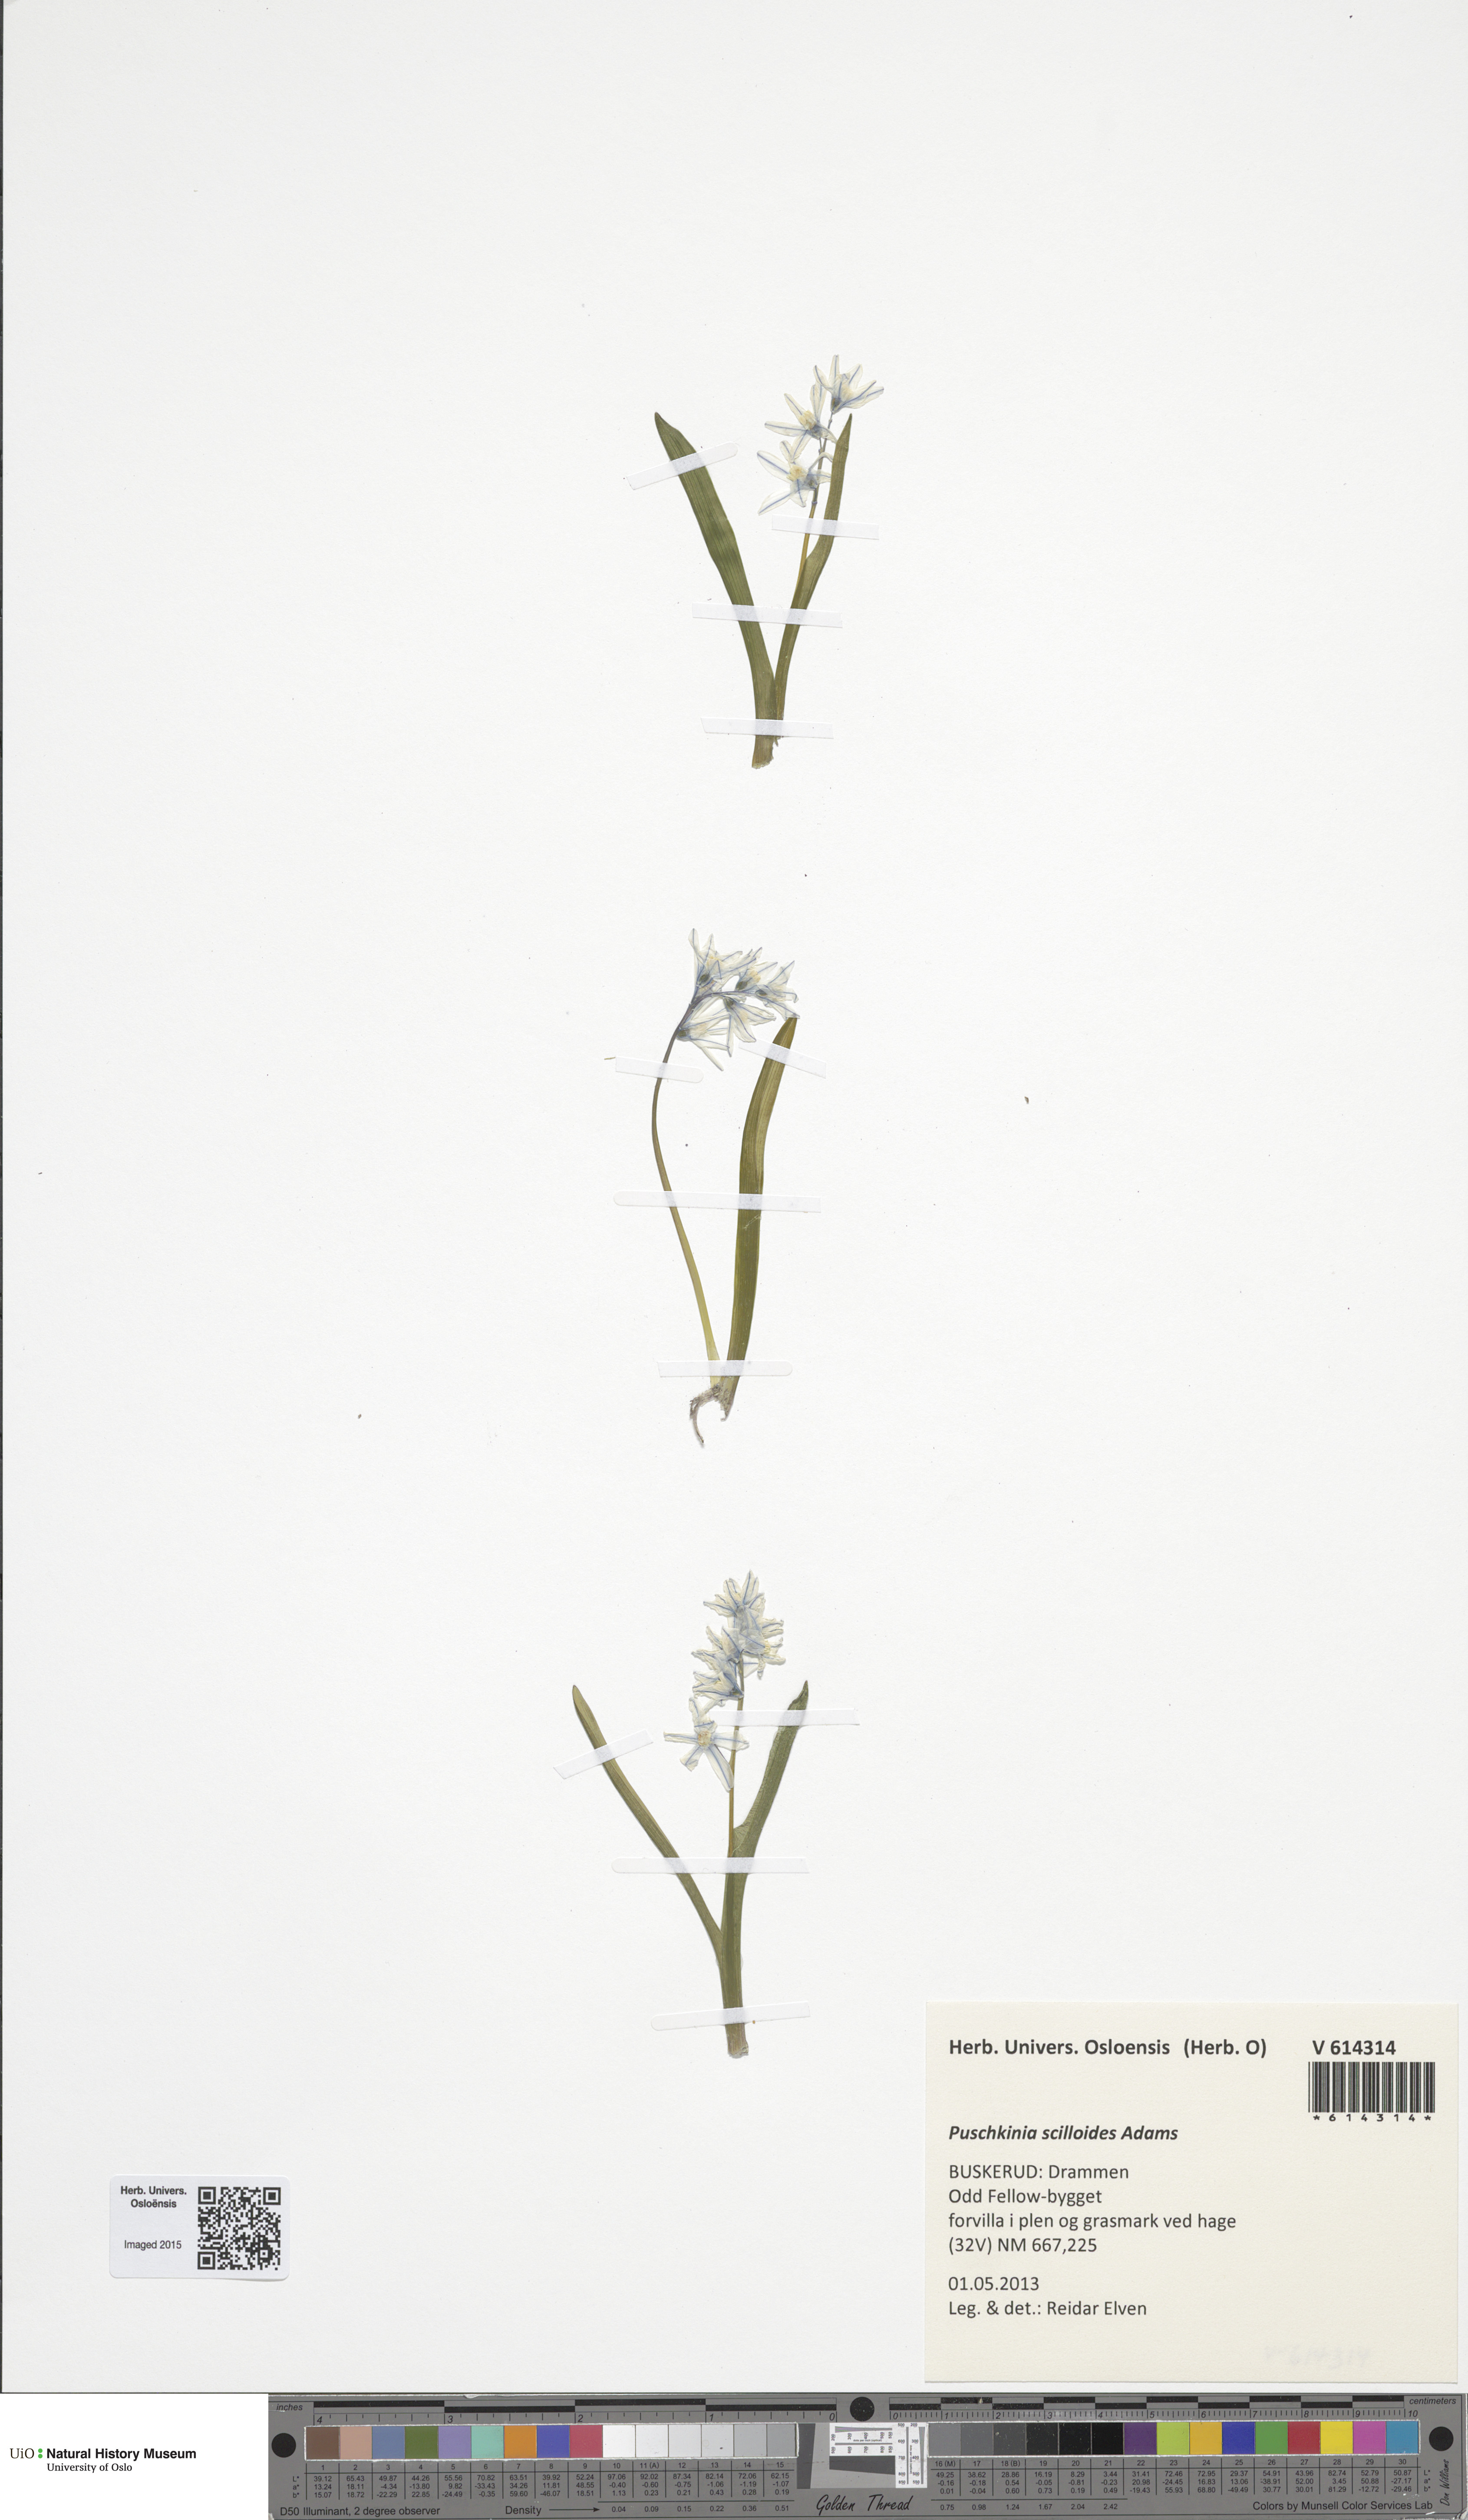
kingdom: Plantae
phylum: Tracheophyta
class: Liliopsida
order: Asparagales
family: Asparagaceae
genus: Puschkinia
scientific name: Puschkinia scilloides
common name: Striped squill
